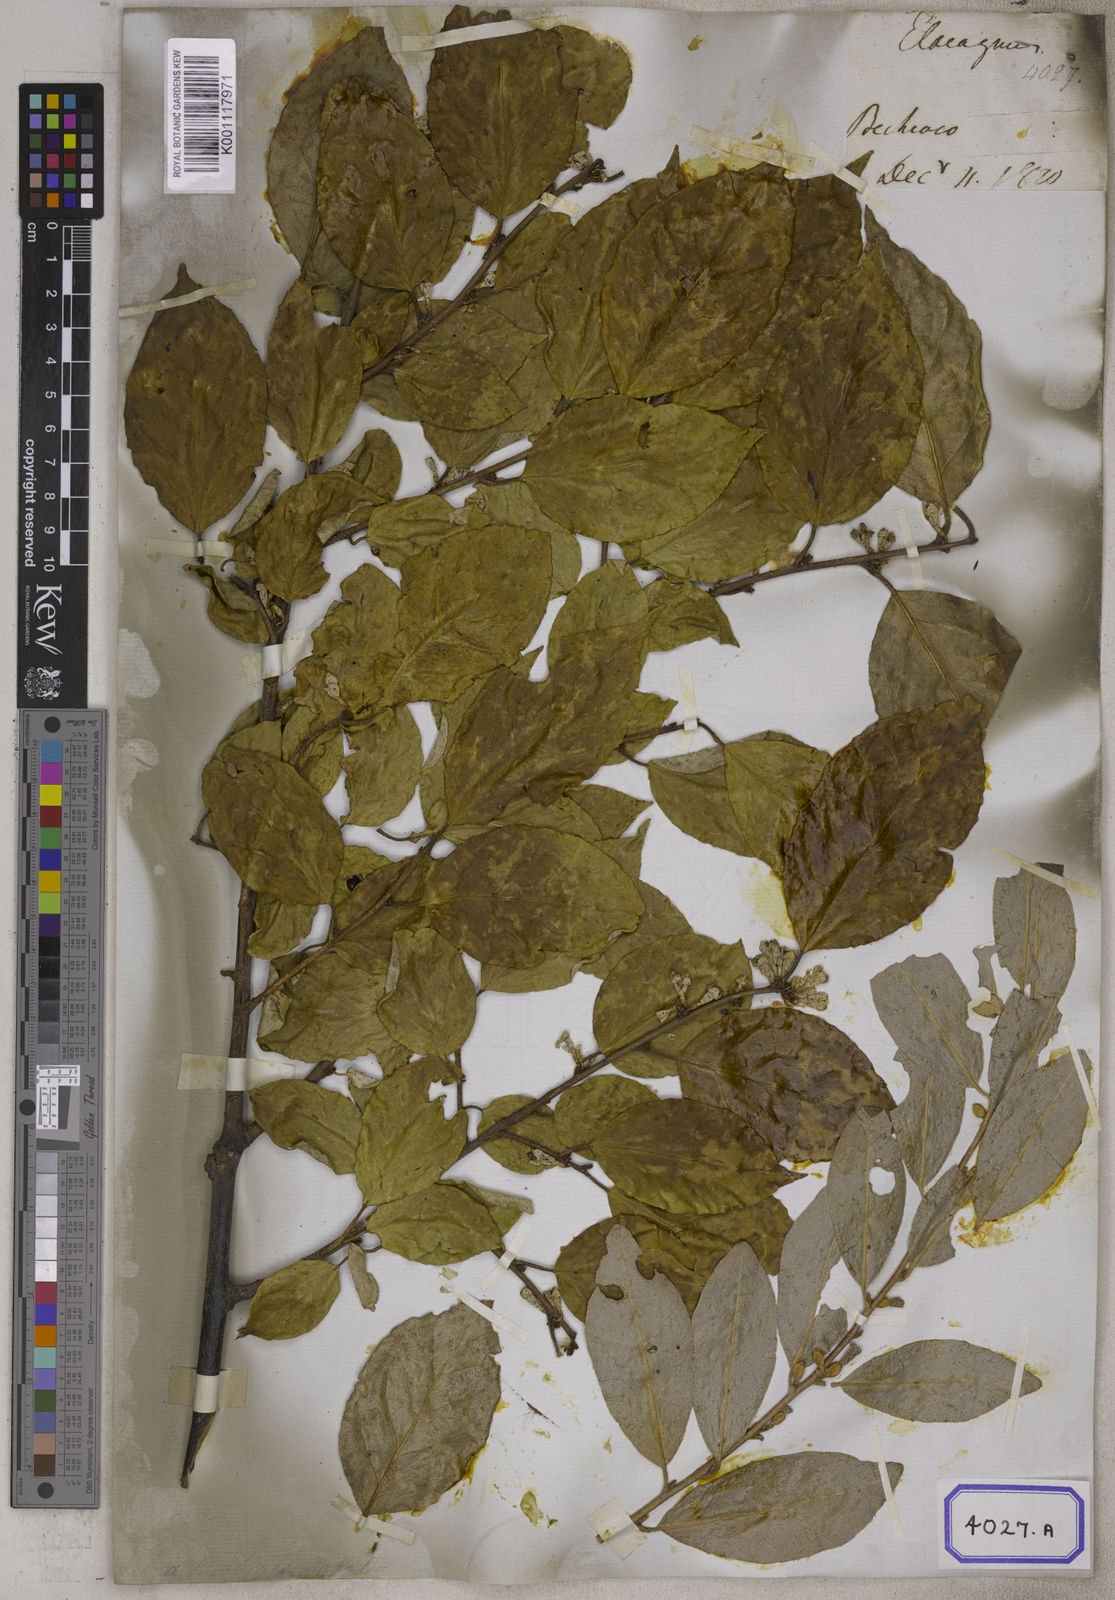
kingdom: Plantae
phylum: Tracheophyta
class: Magnoliopsida
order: Rosales
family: Elaeagnaceae
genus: Elaeagnus
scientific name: Elaeagnus conferta
